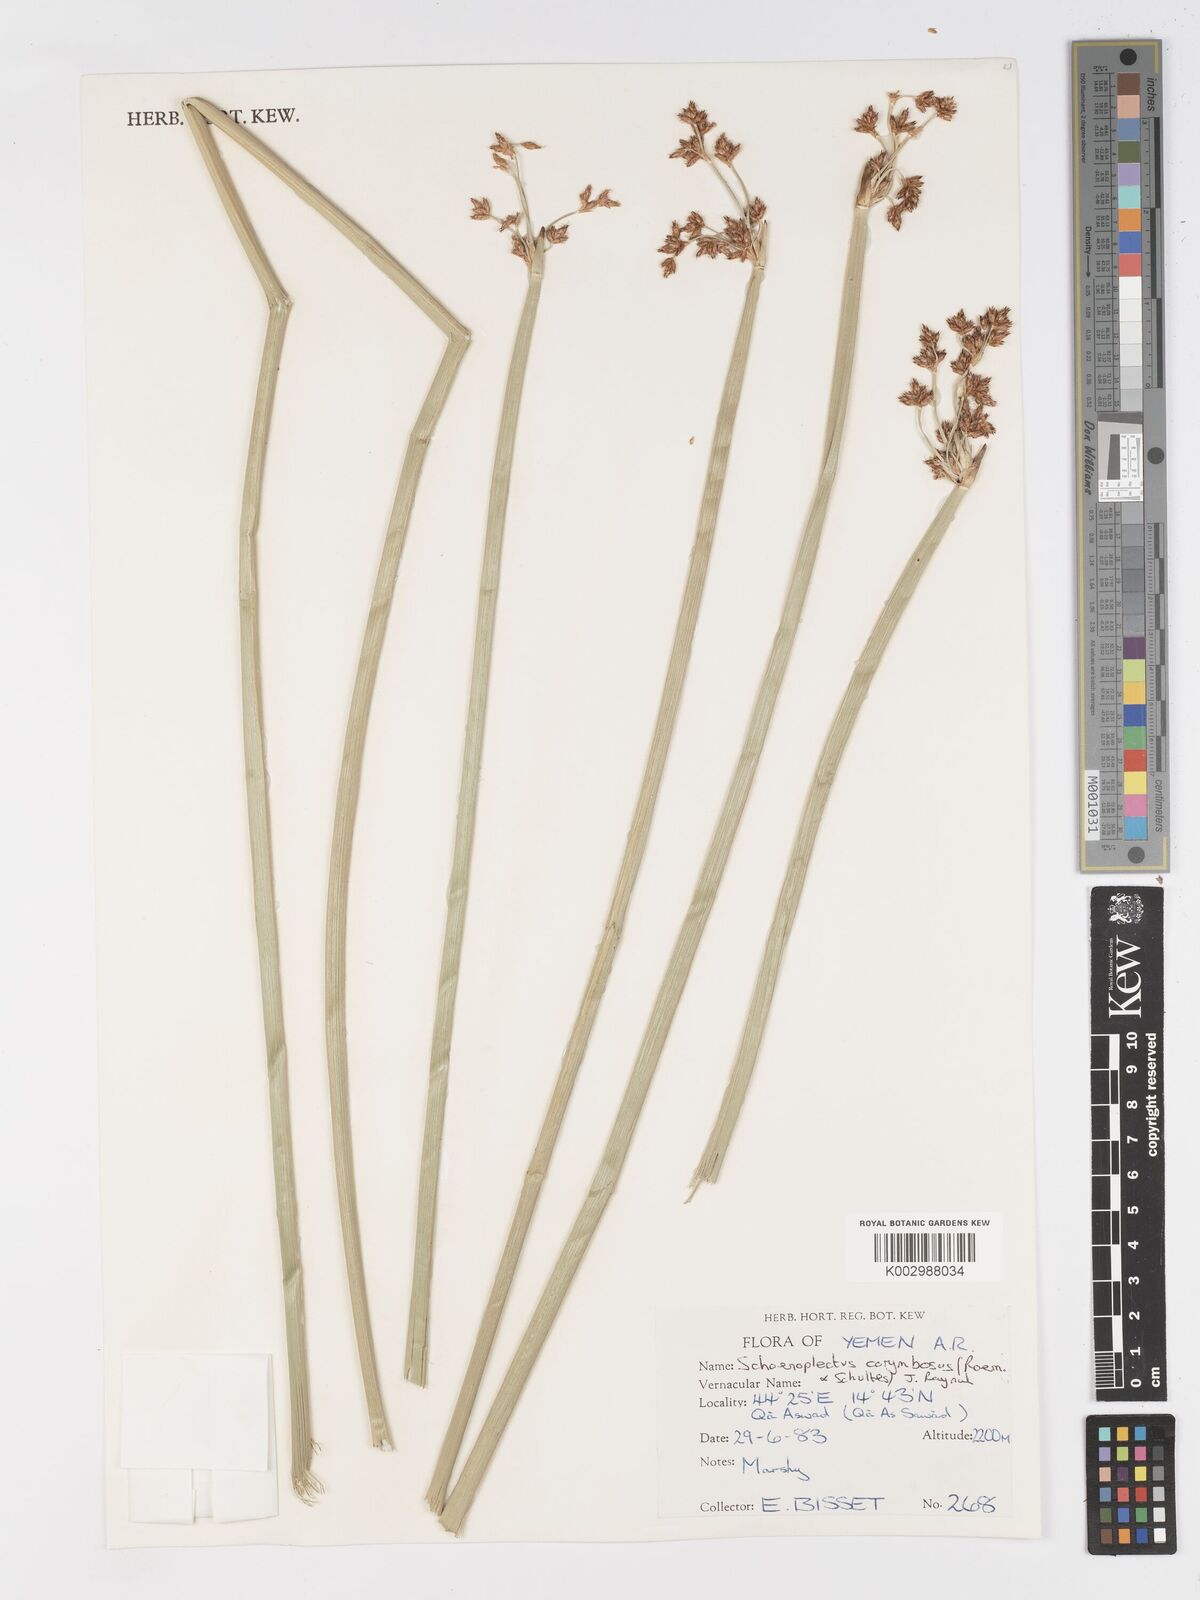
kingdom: Plantae
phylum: Tracheophyta
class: Liliopsida
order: Poales
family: Cyperaceae
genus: Schoenoplectiella
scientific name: Schoenoplectiella corymbosa
